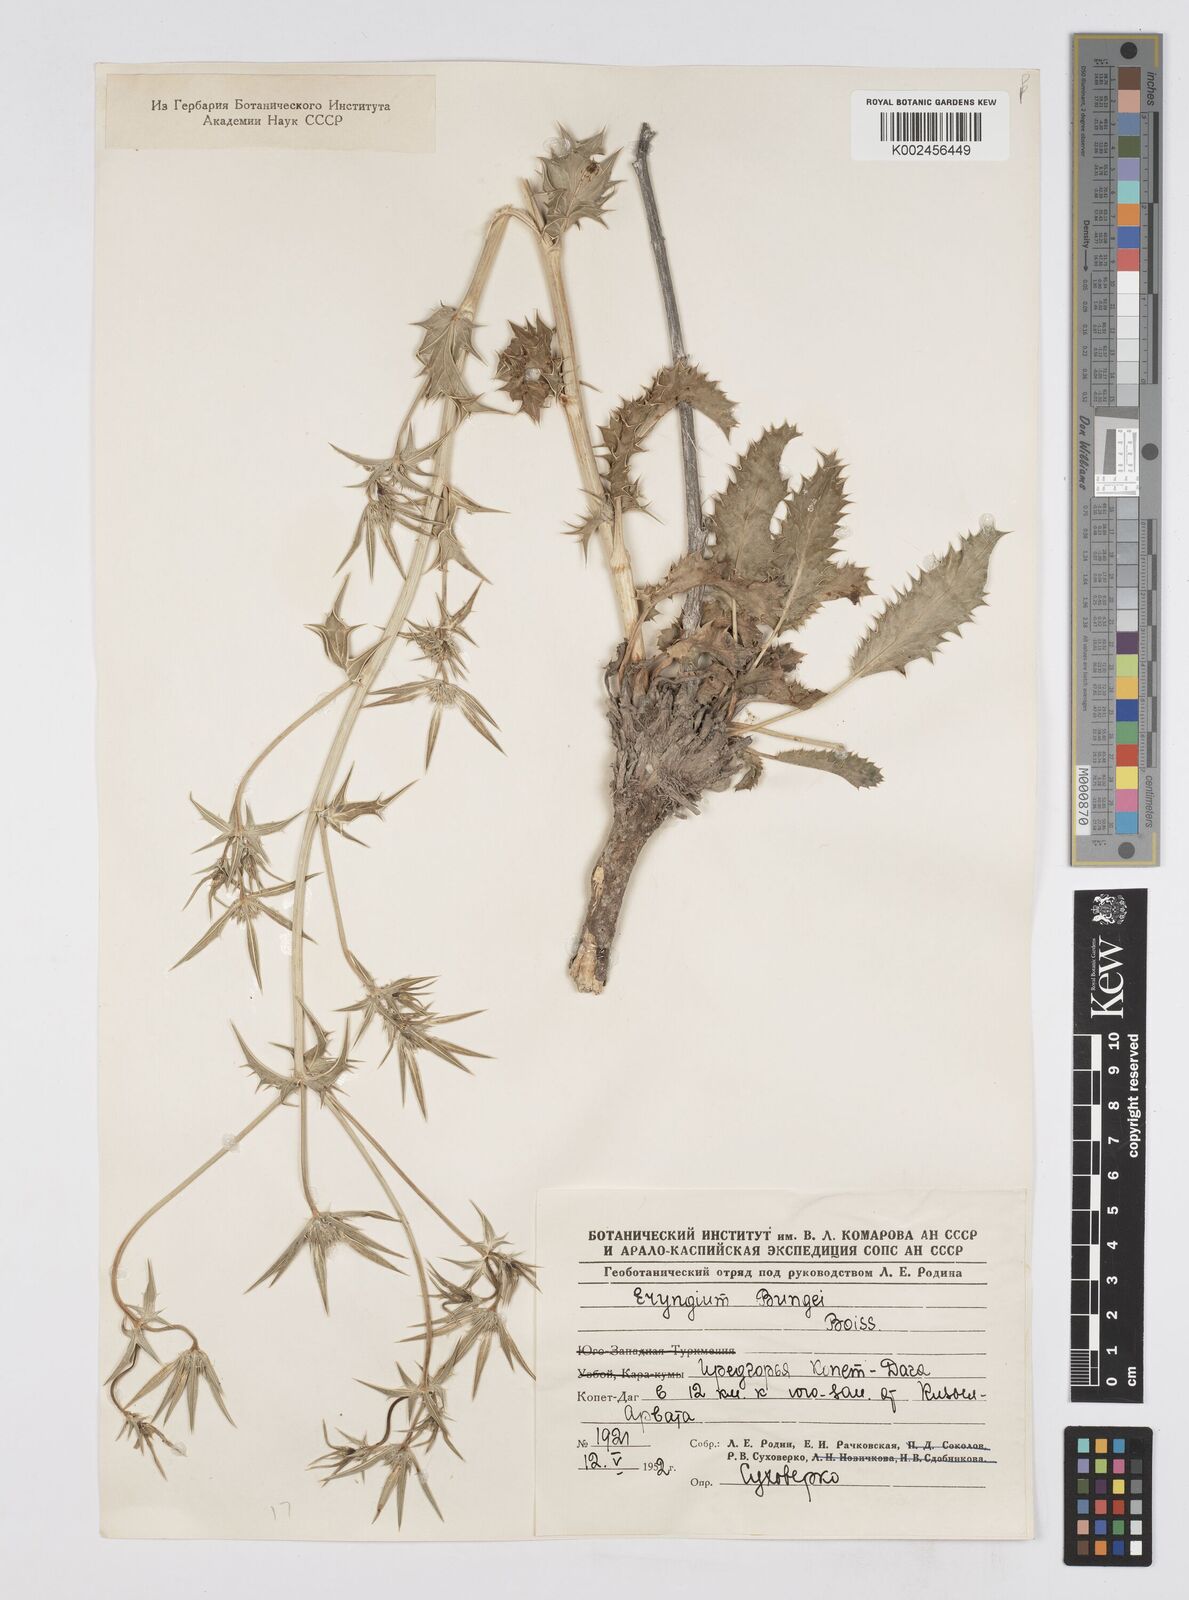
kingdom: Plantae
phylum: Tracheophyta
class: Magnoliopsida
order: Apiales
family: Apiaceae
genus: Eryngium
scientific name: Eryngium bungei
